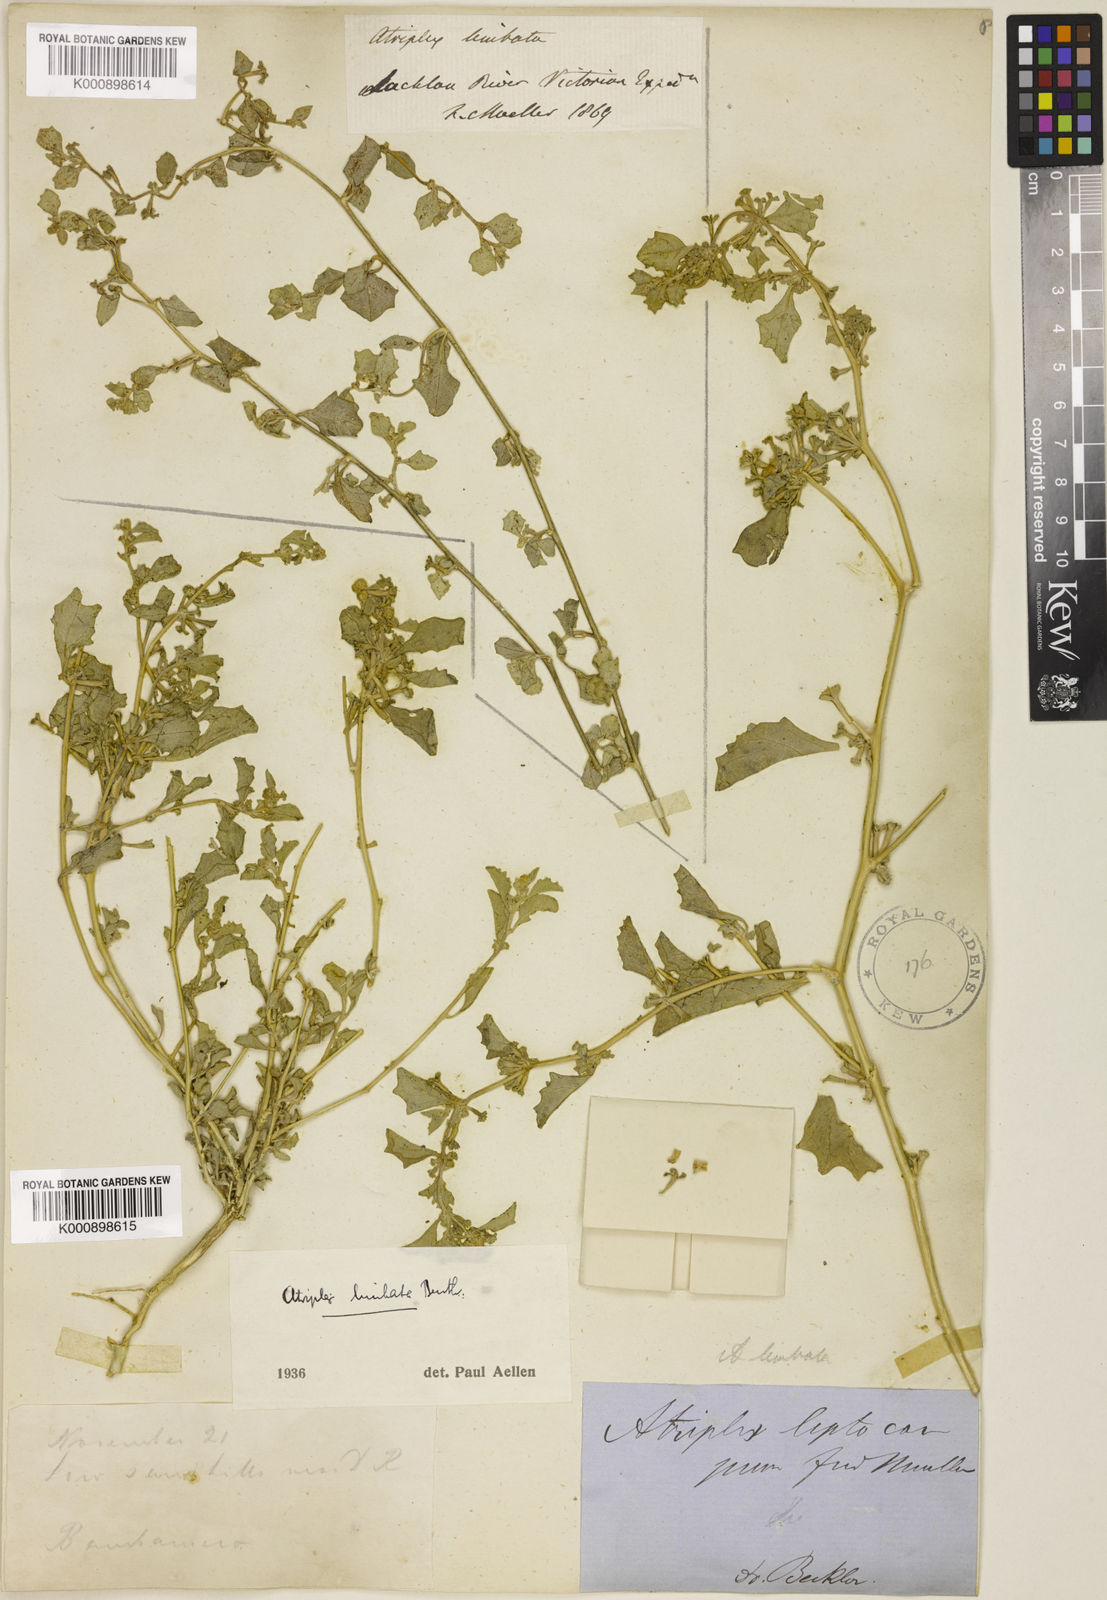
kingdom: Plantae
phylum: Tracheophyta
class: Magnoliopsida
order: Caryophyllales
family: Amaranthaceae
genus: Atriplex
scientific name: Atriplex limbata
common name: Spreading saltbush
